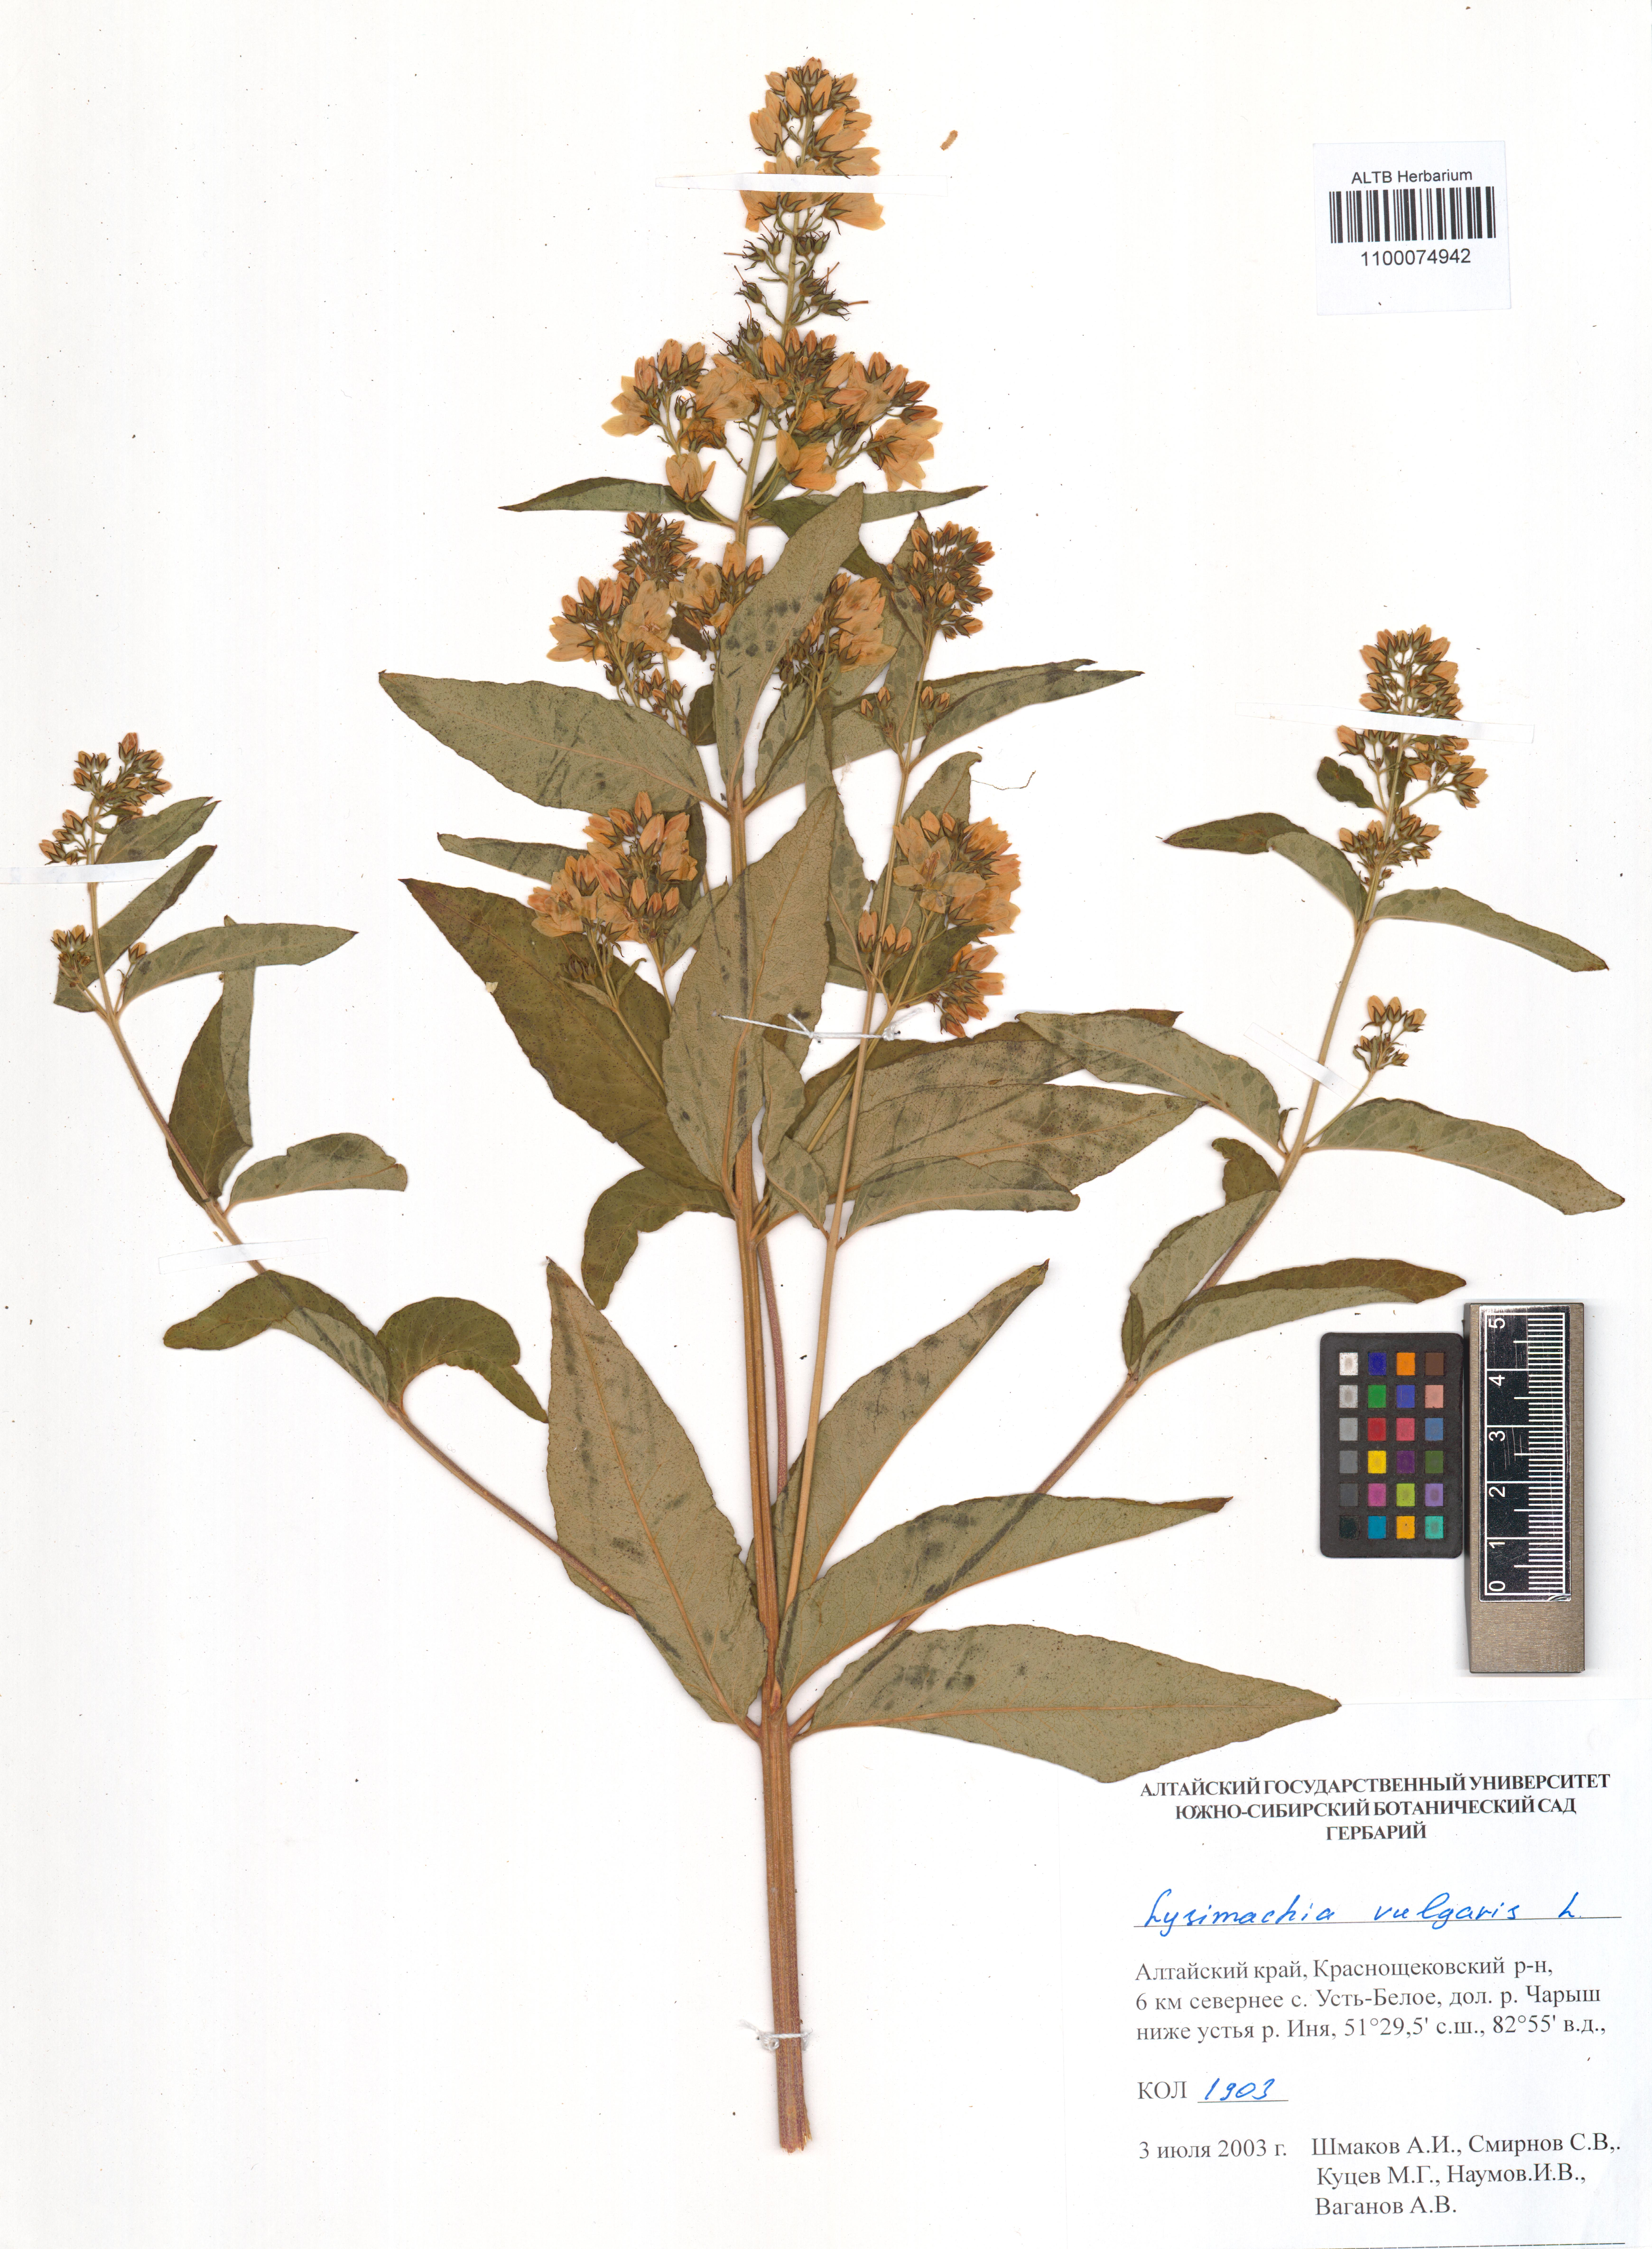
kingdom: Plantae
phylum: Tracheophyta
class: Magnoliopsida
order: Ericales
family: Primulaceae
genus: Lysimachia
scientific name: Lysimachia vulgaris
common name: Yellow loosestrife
